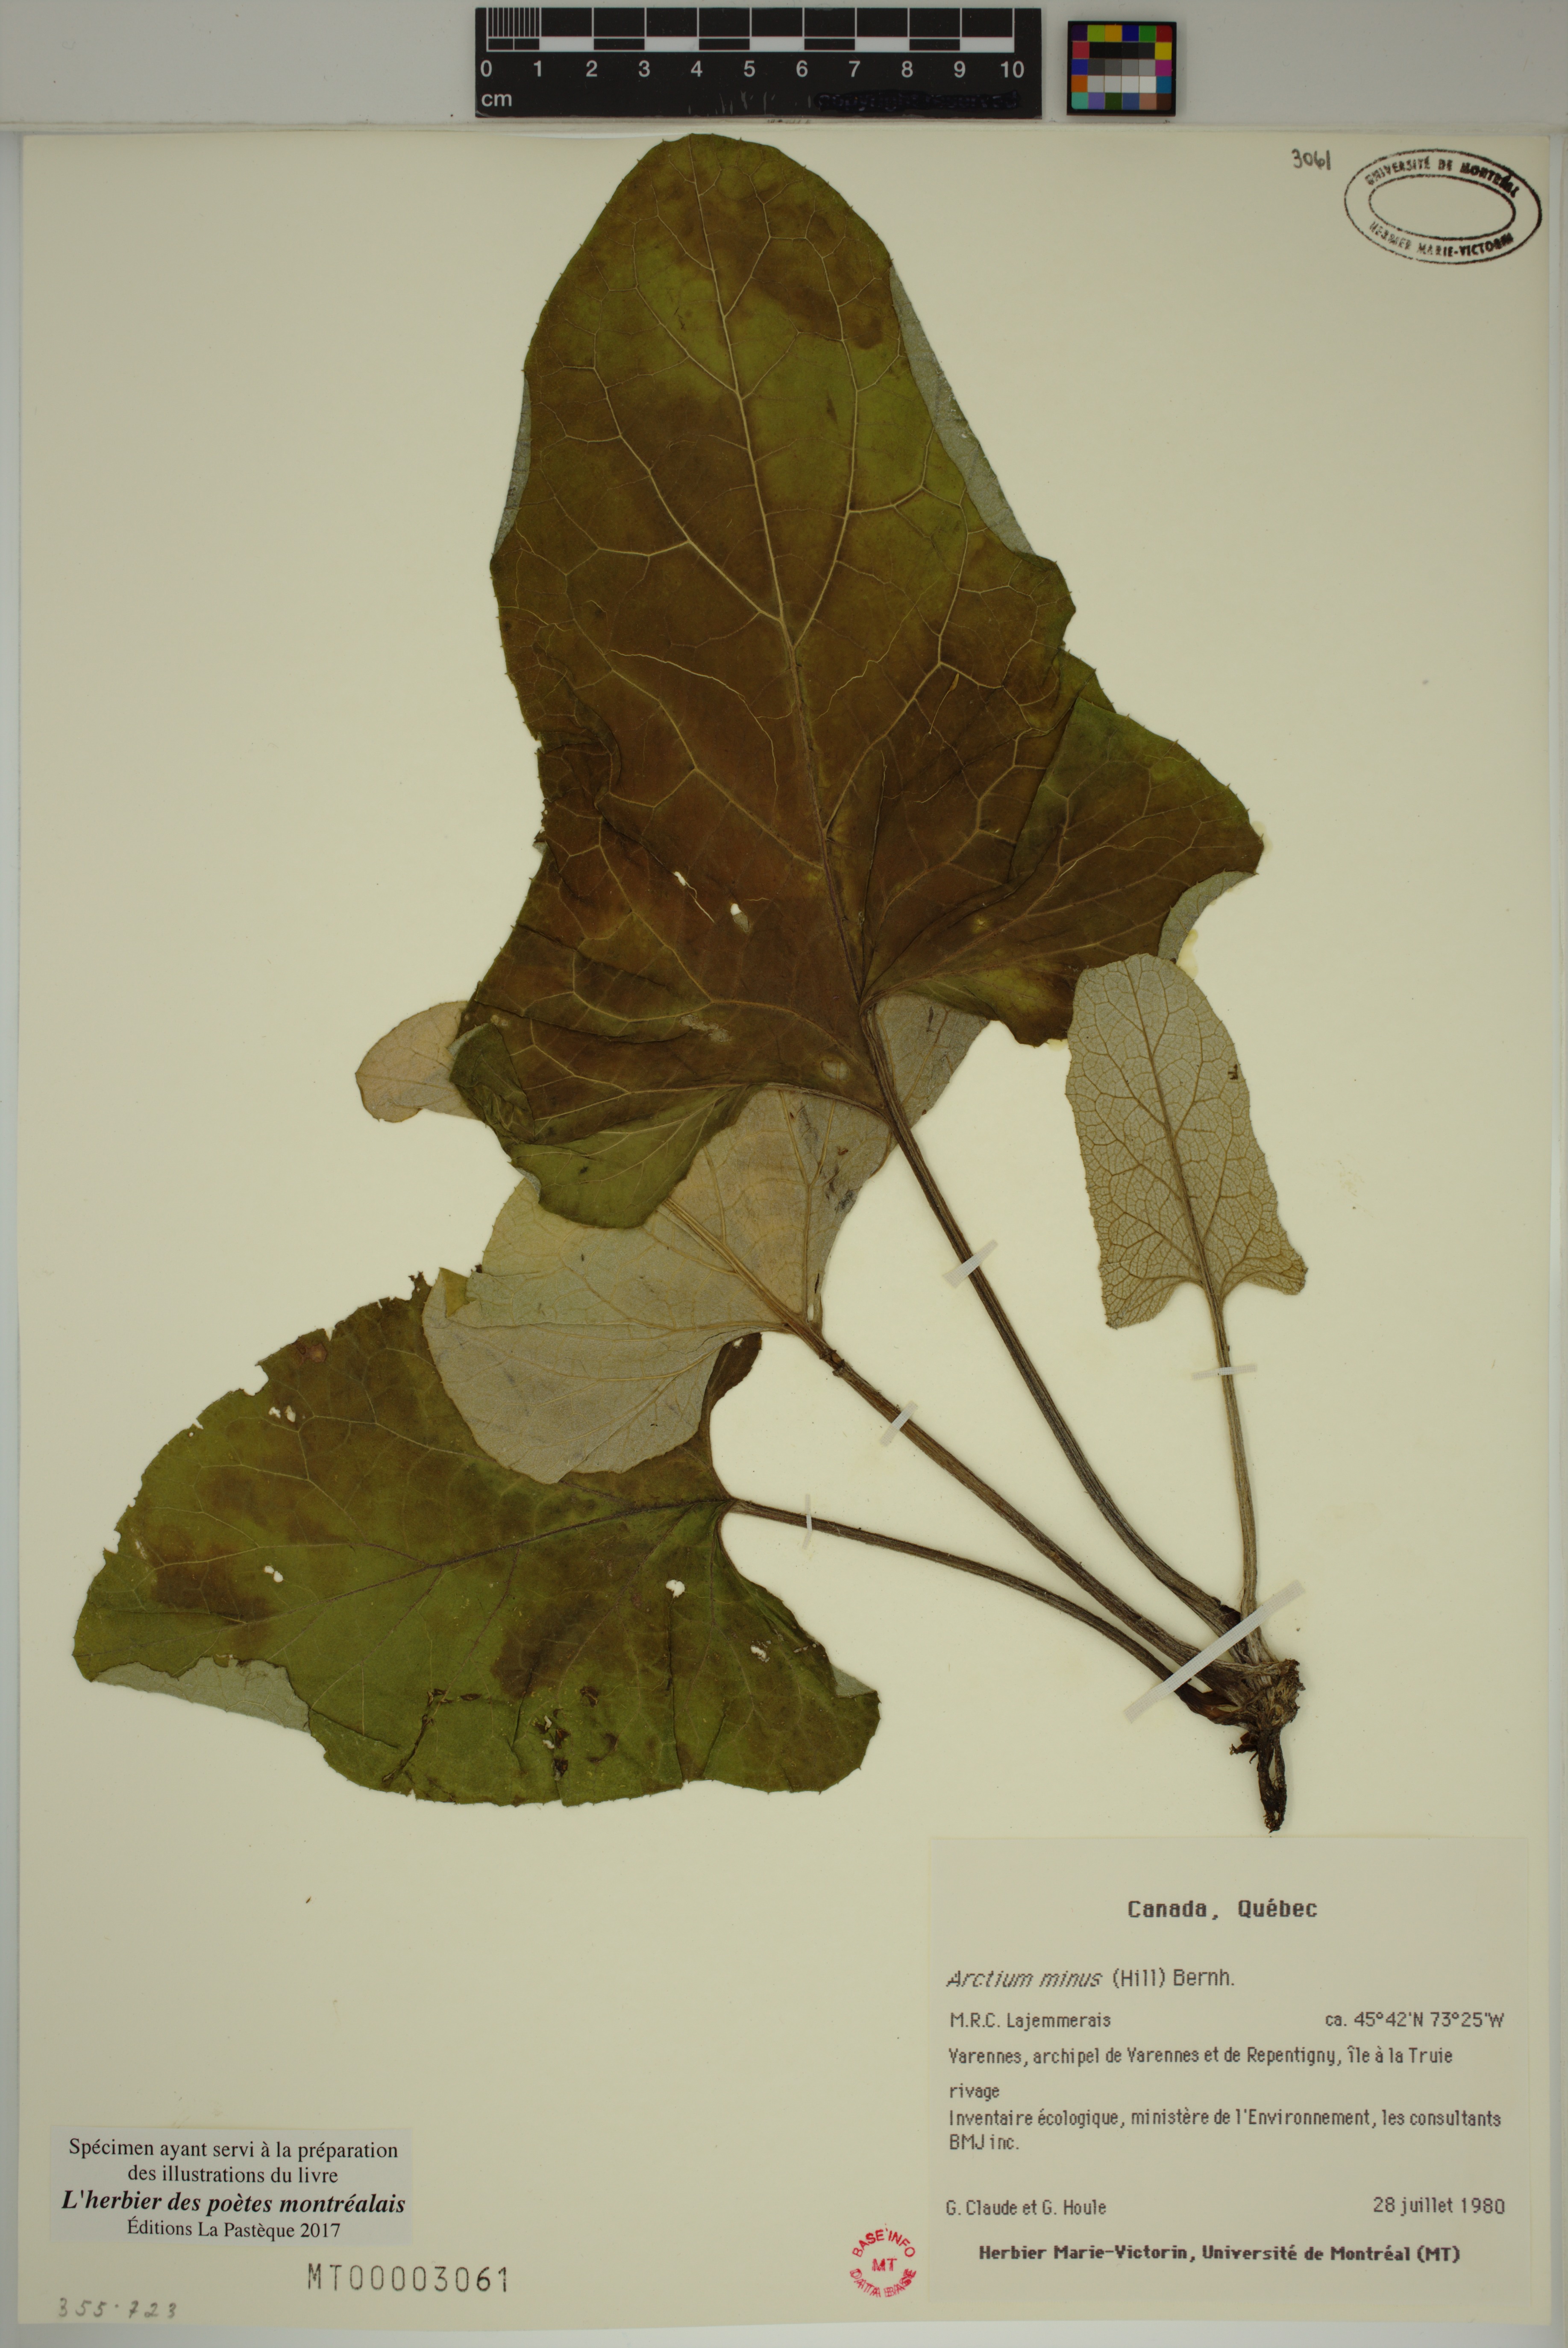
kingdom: Plantae
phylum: Tracheophyta
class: Magnoliopsida
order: Asterales
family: Asteraceae
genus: Arctium
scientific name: Arctium minus
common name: Lesser burdock
